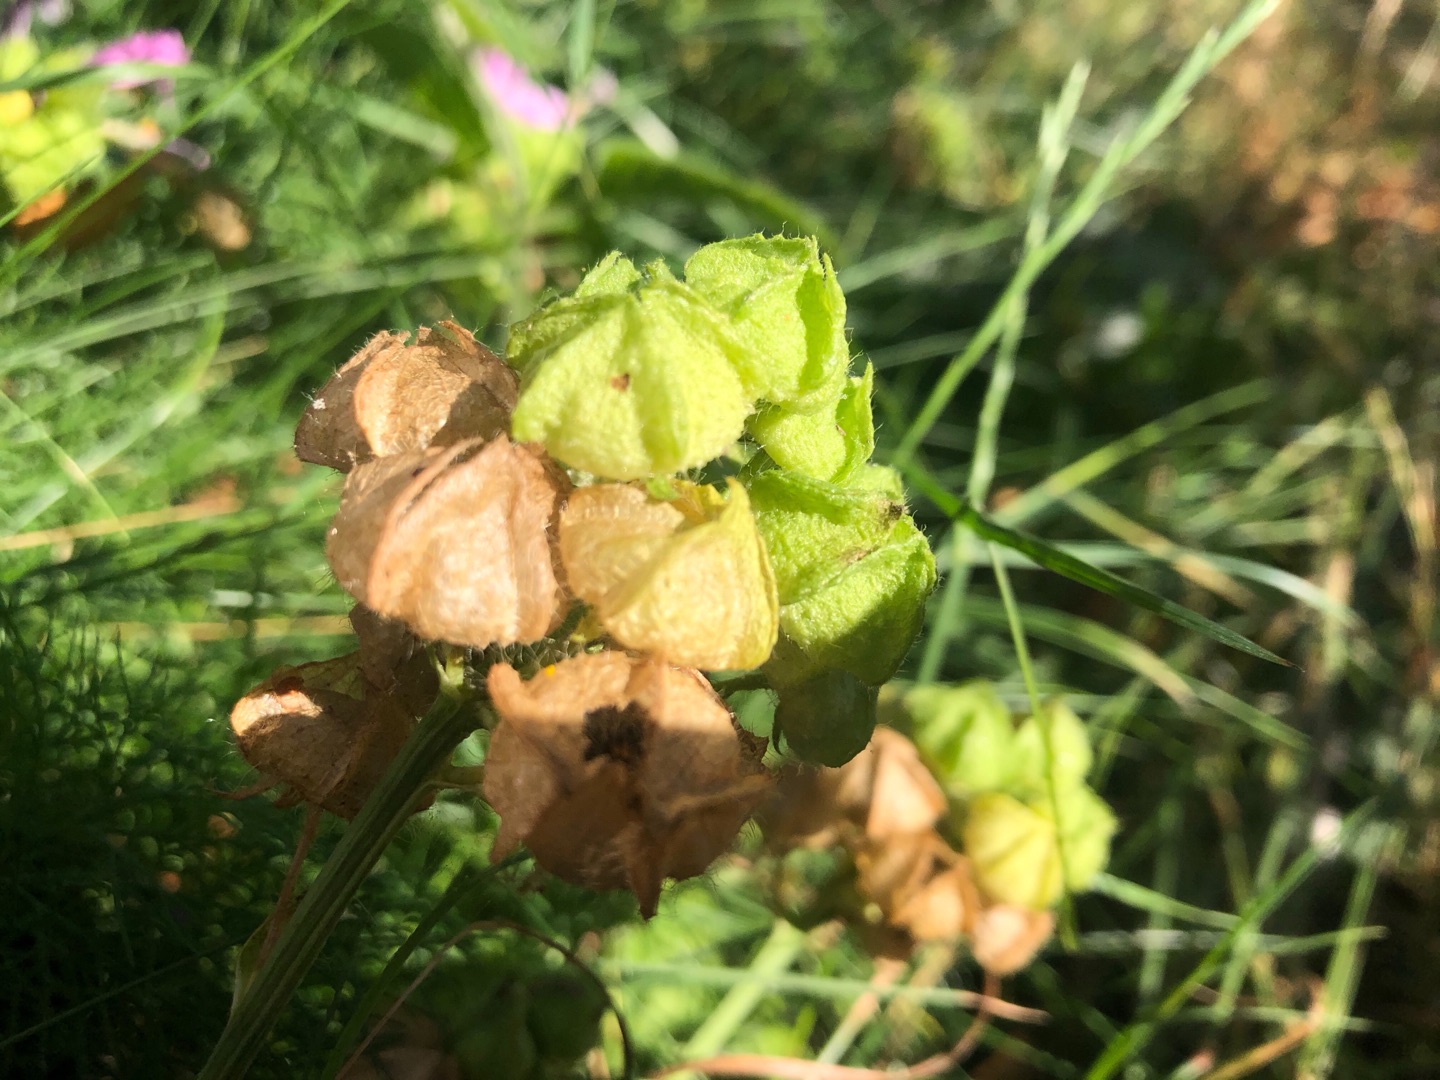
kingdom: Plantae
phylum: Tracheophyta
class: Magnoliopsida
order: Malvales
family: Malvaceae
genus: Malva
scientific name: Malva moschata
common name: Moskus-katost
